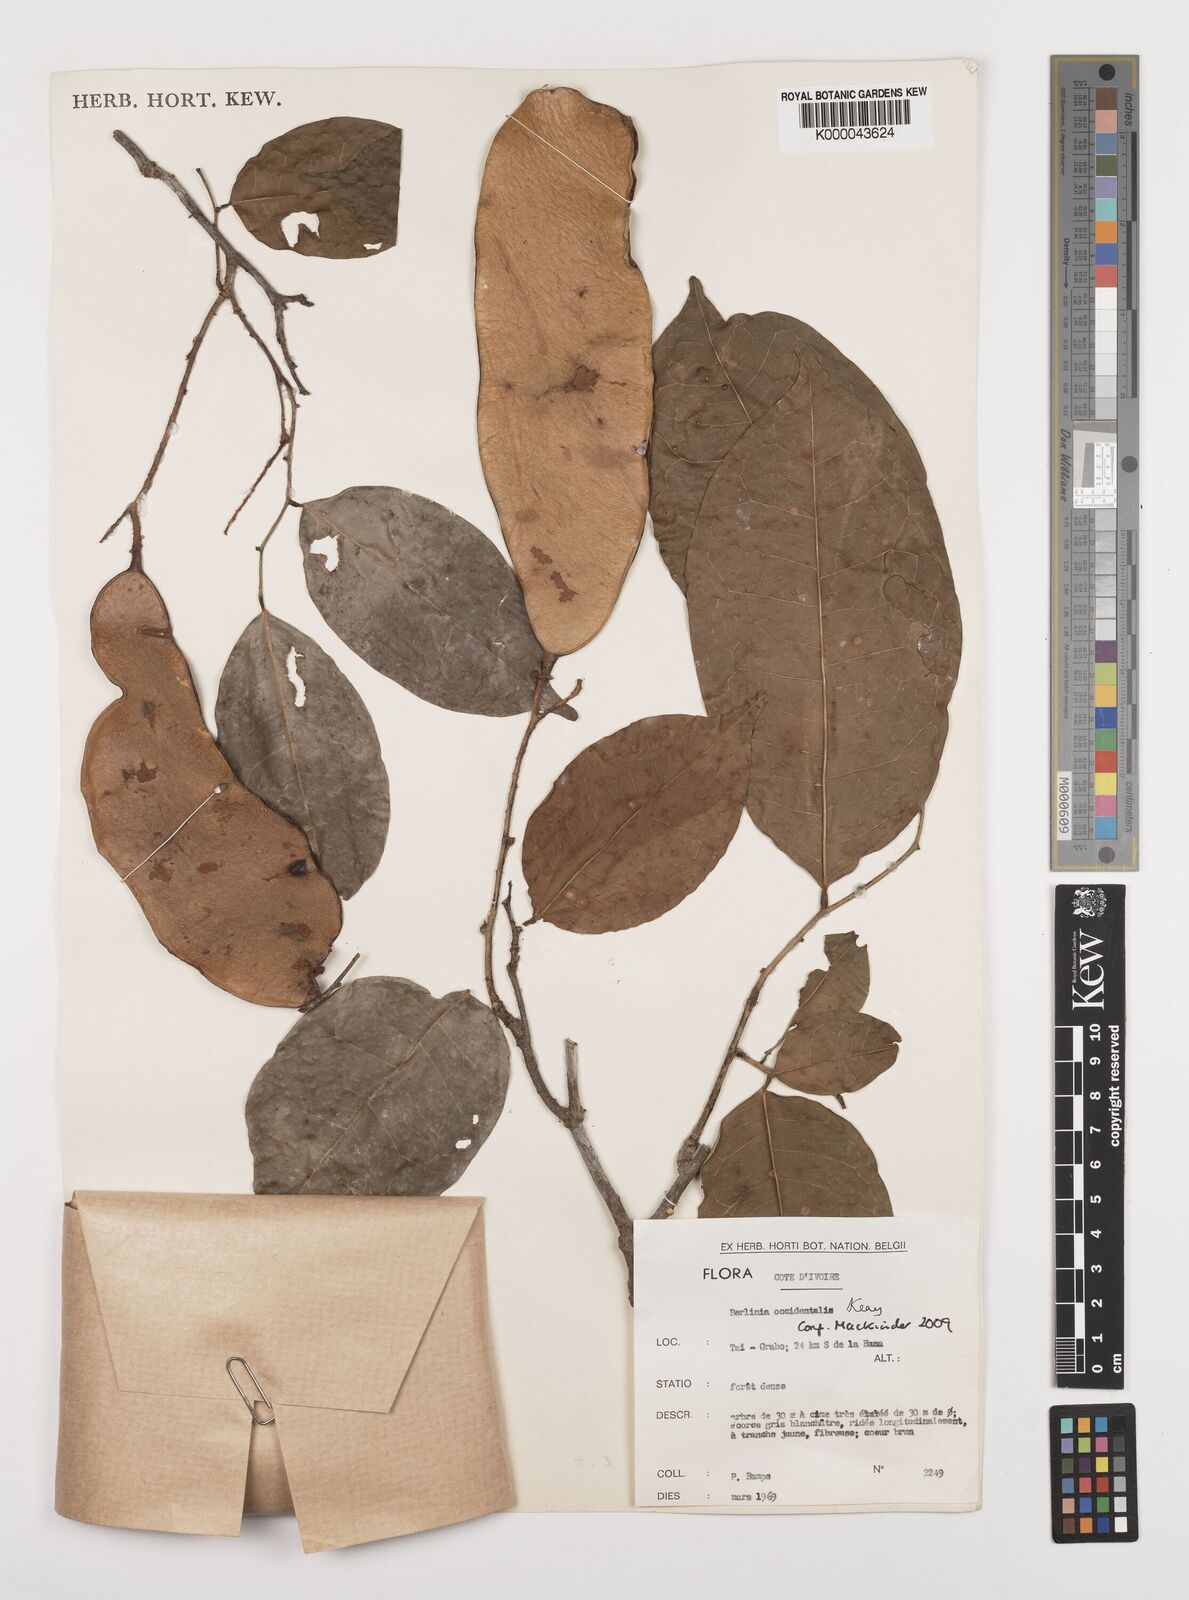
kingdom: Plantae
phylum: Tracheophyta
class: Magnoliopsida
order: Fabales
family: Fabaceae
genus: Berlinia
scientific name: Berlinia occidentalis
